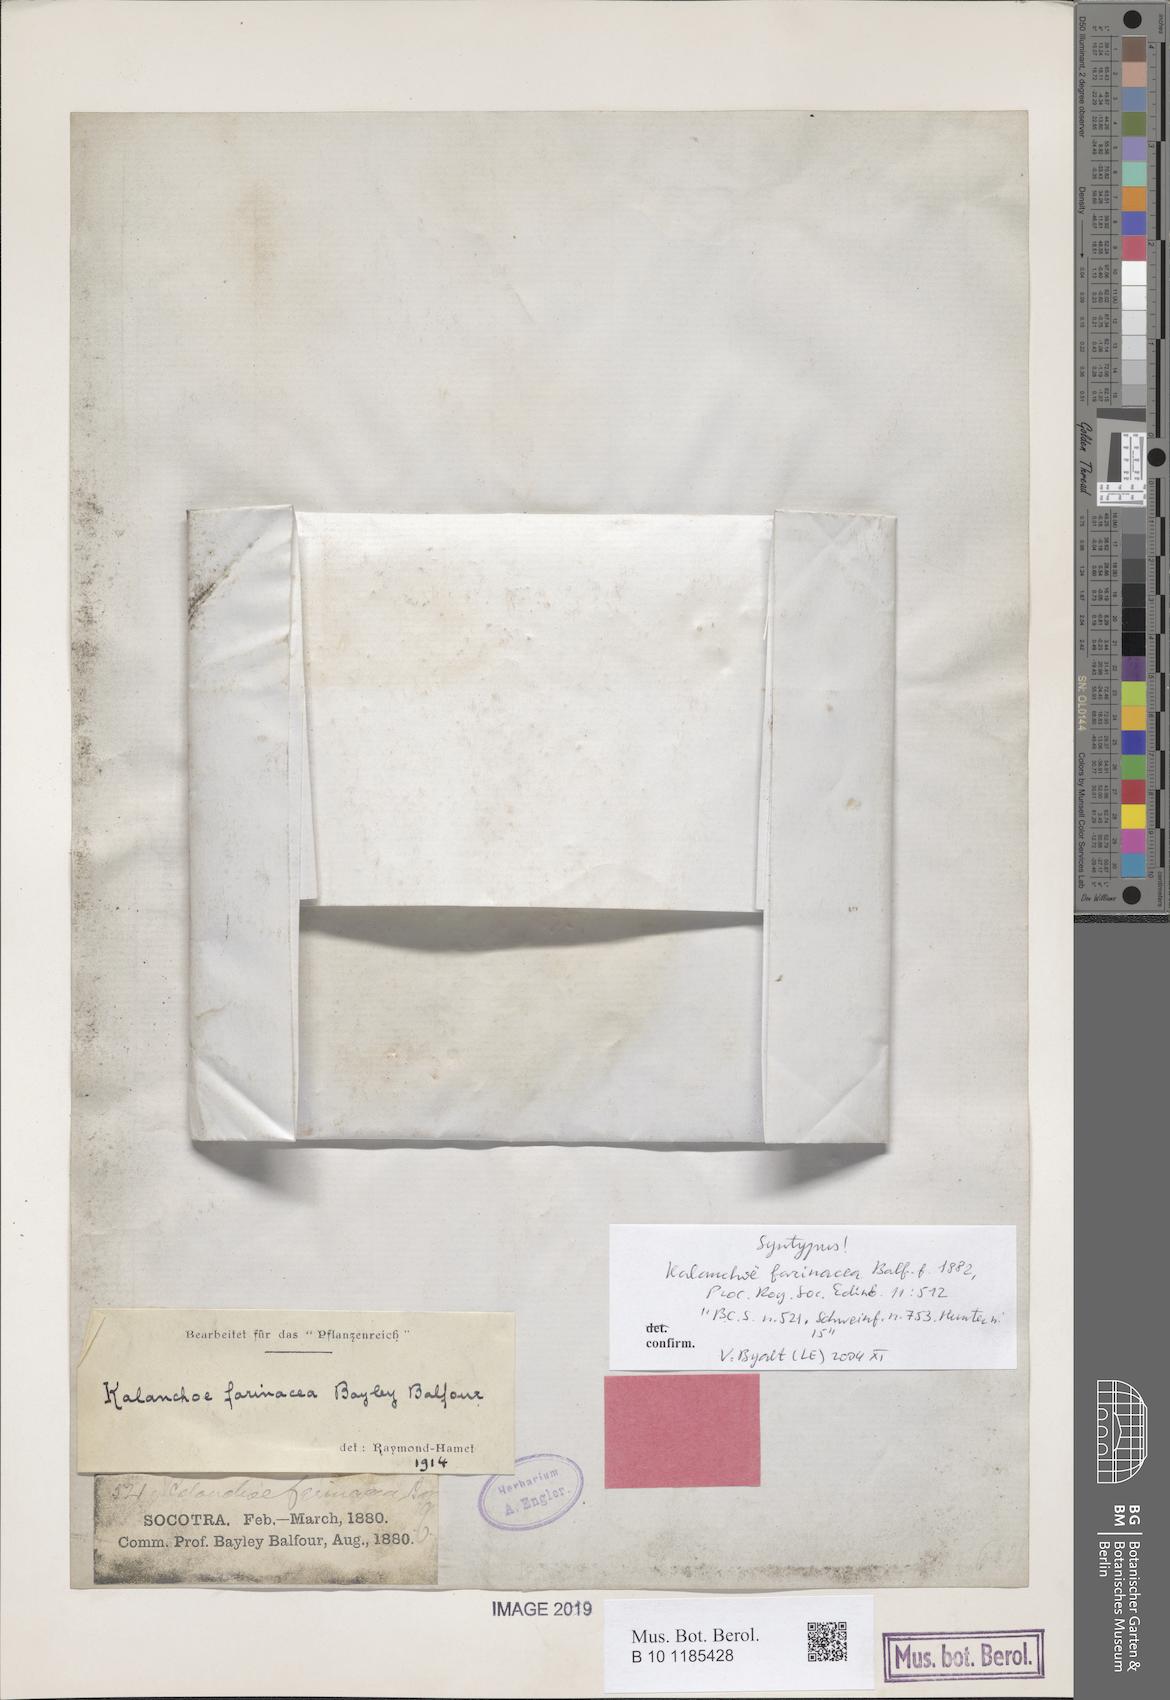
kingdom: Plantae
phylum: Tracheophyta
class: Magnoliopsida
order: Saxifragales
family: Crassulaceae
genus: Kalanchoe
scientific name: Kalanchoe farinacea
